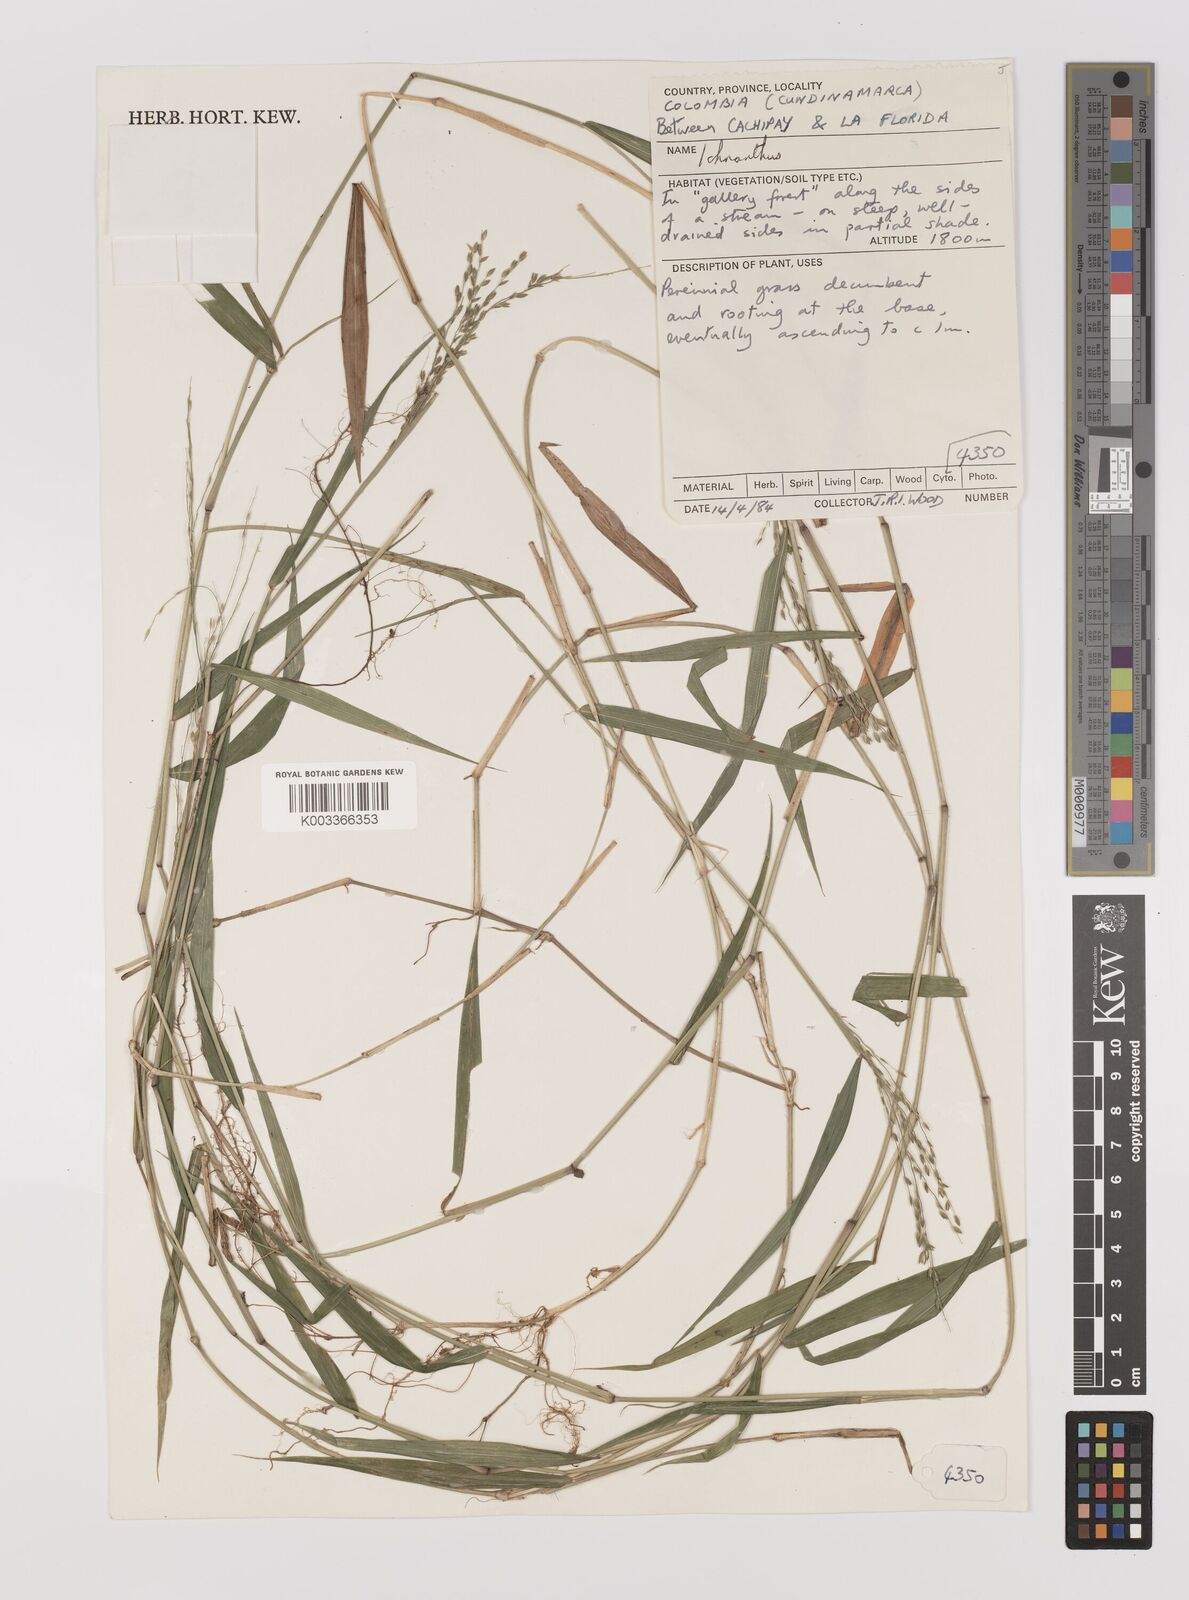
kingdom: Plantae
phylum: Tracheophyta
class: Liliopsida
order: Poales
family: Poaceae
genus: Ichnanthus
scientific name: Ichnanthus tenuis
